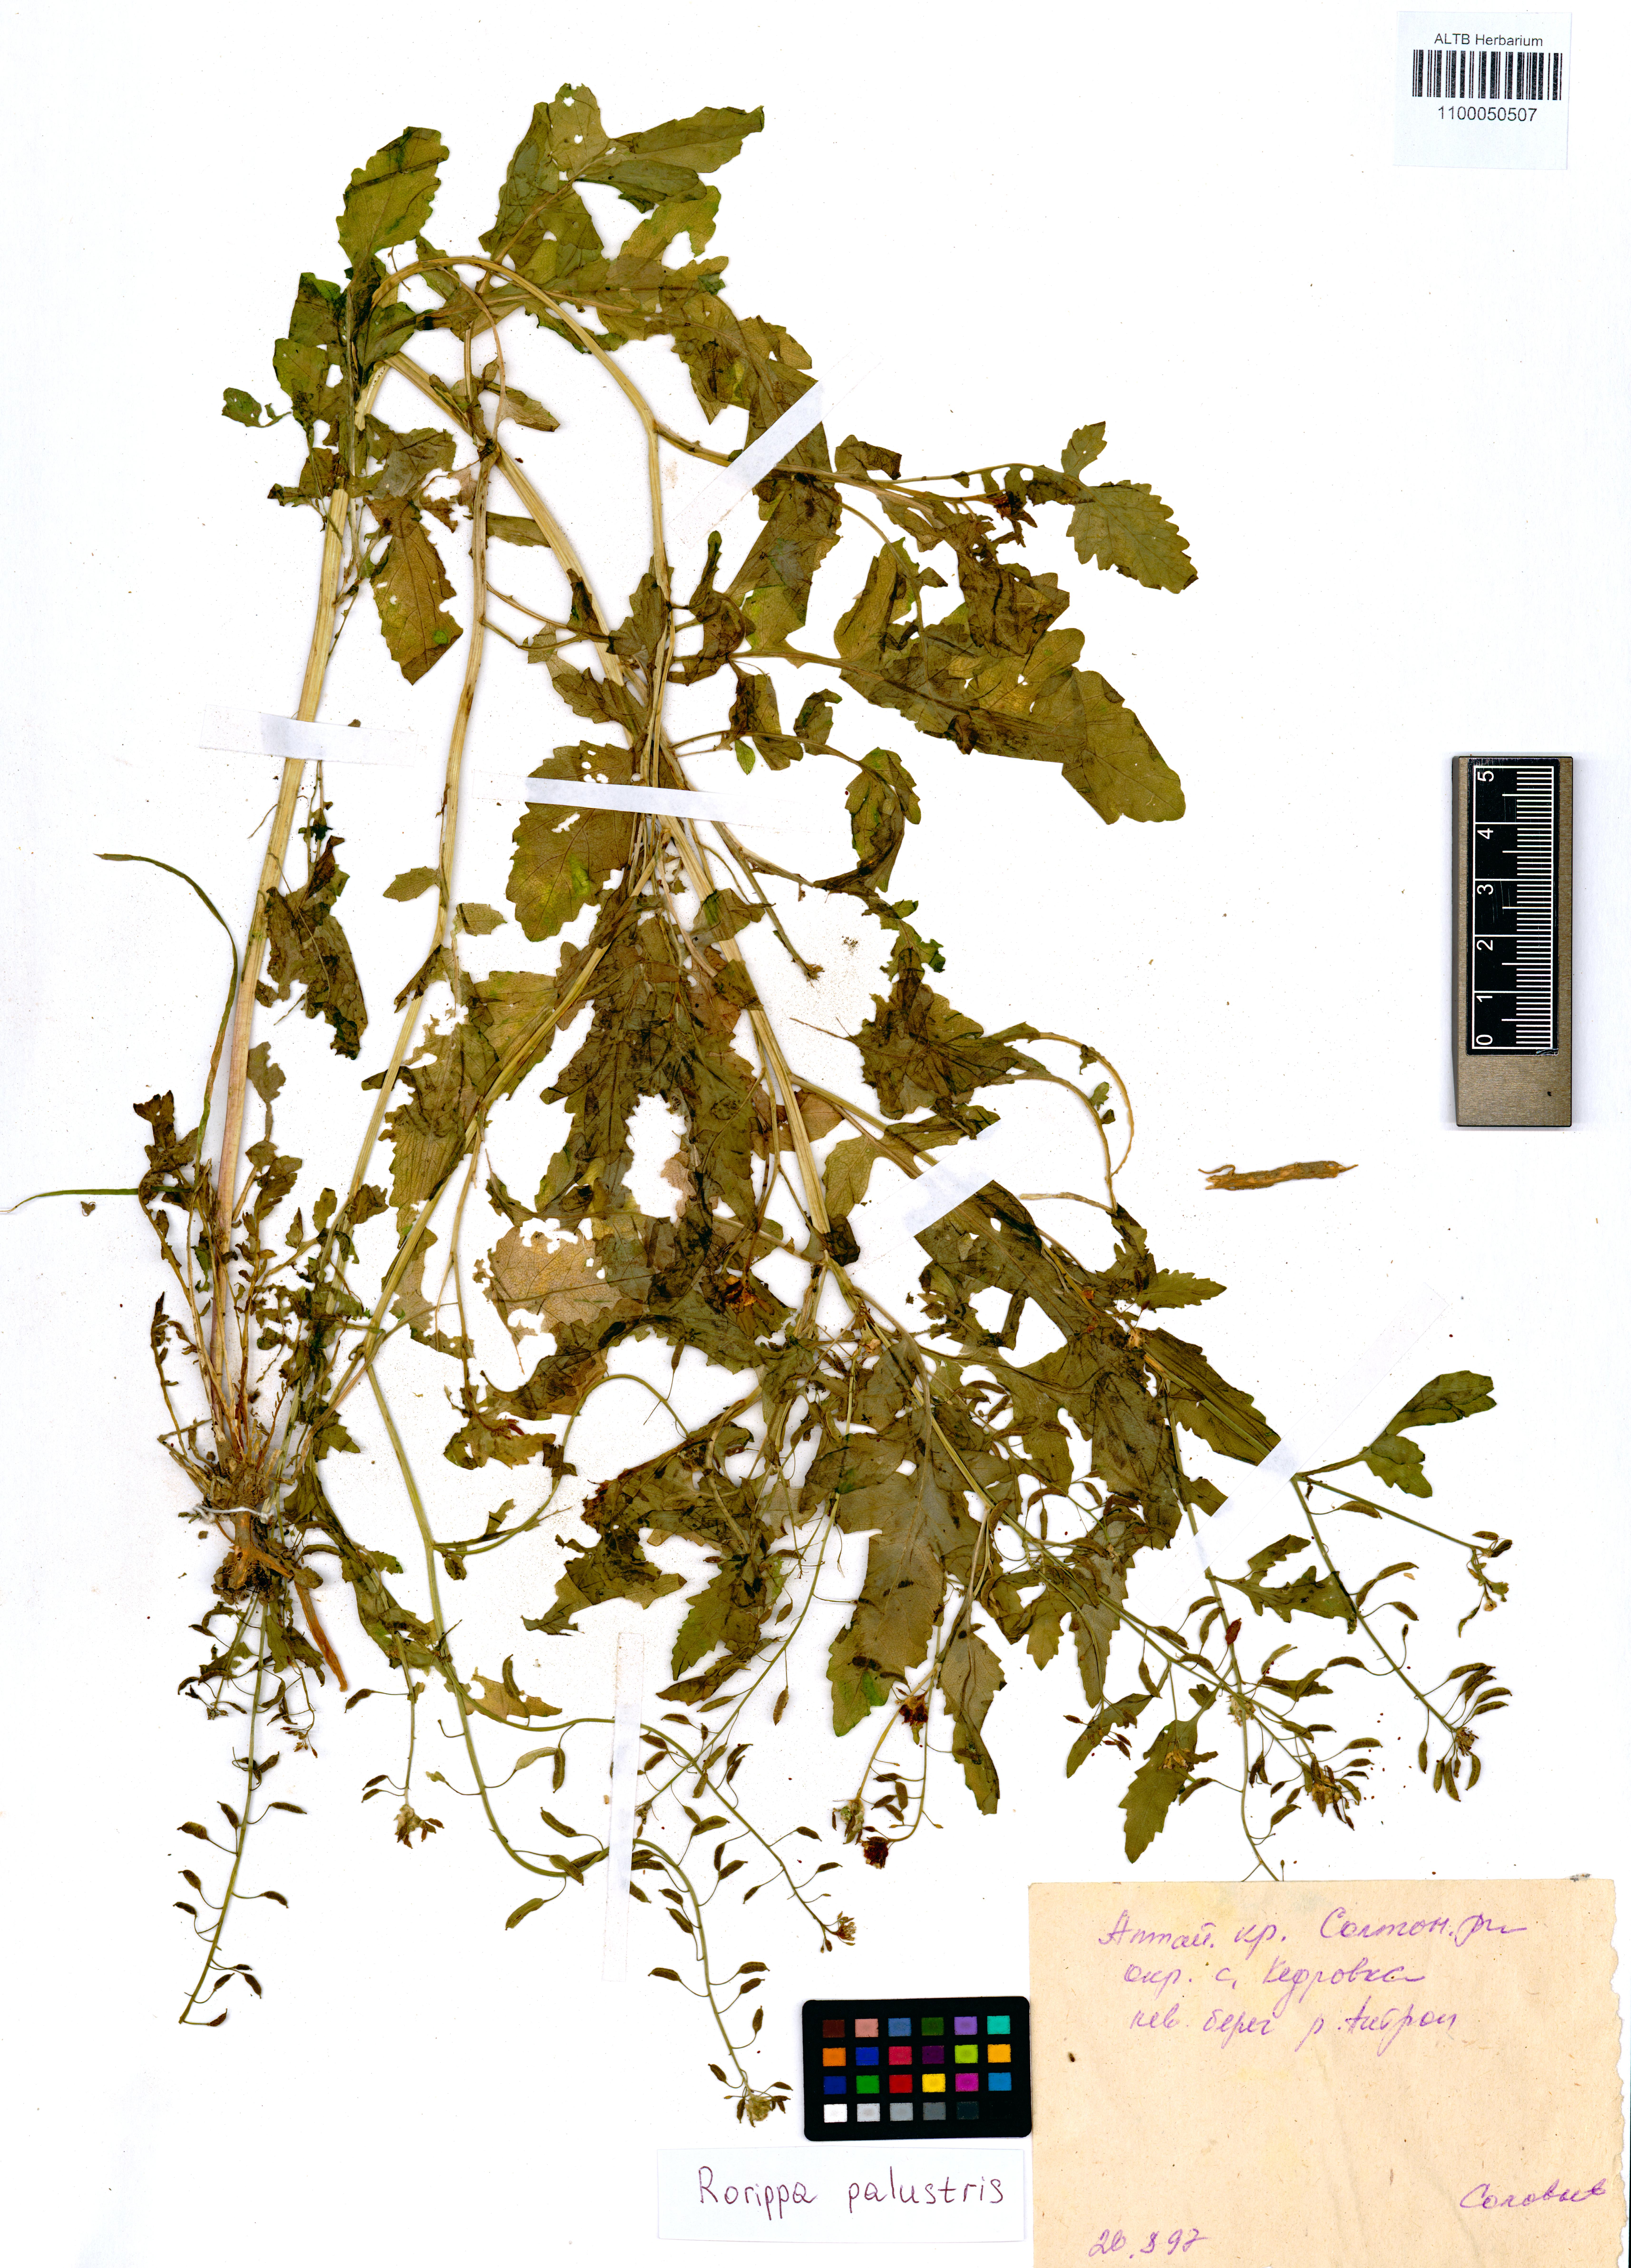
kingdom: Plantae
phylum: Tracheophyta
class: Magnoliopsida
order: Brassicales
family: Brassicaceae
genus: Rorippa
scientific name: Rorippa palustris
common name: Marsh yellow-cress
